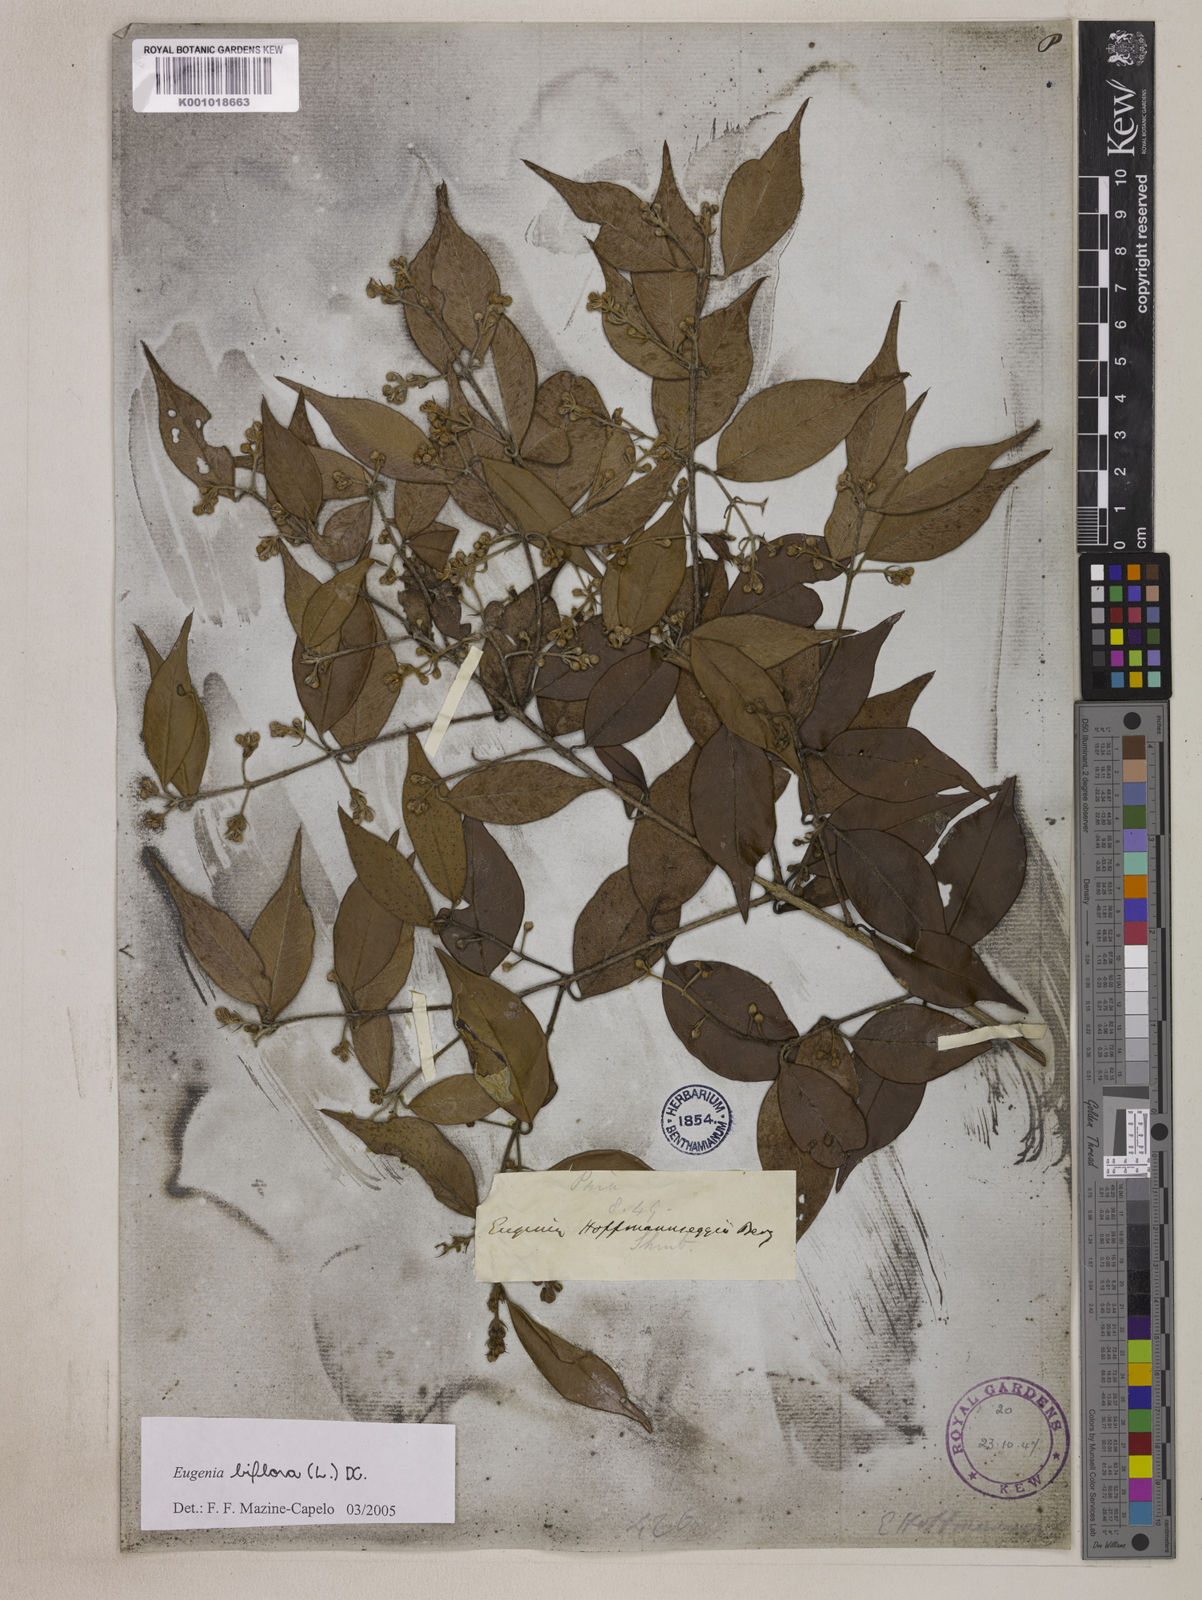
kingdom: Plantae
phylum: Tracheophyta
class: Magnoliopsida
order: Myrtales
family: Myrtaceae
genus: Eugenia
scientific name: Eugenia biflora
